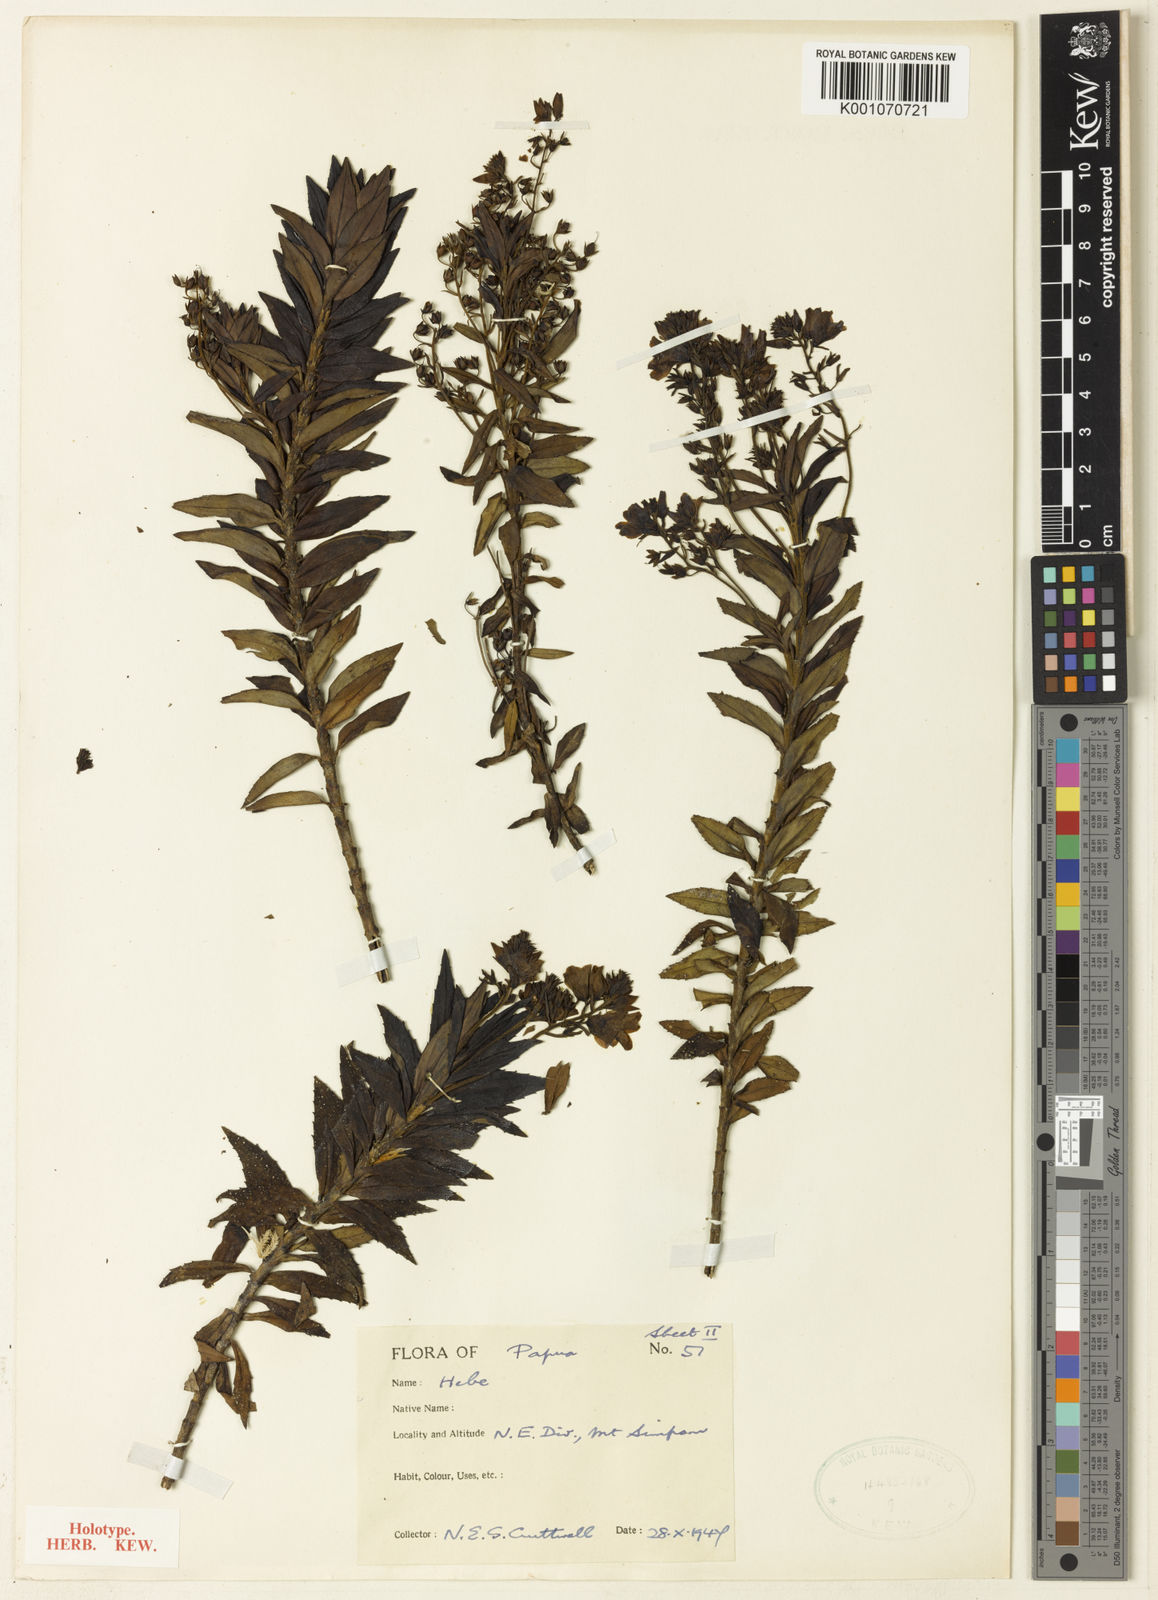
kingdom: Plantae
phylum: Tracheophyta
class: Magnoliopsida
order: Lamiales
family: Plantaginaceae
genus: Veronica
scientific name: Veronica
